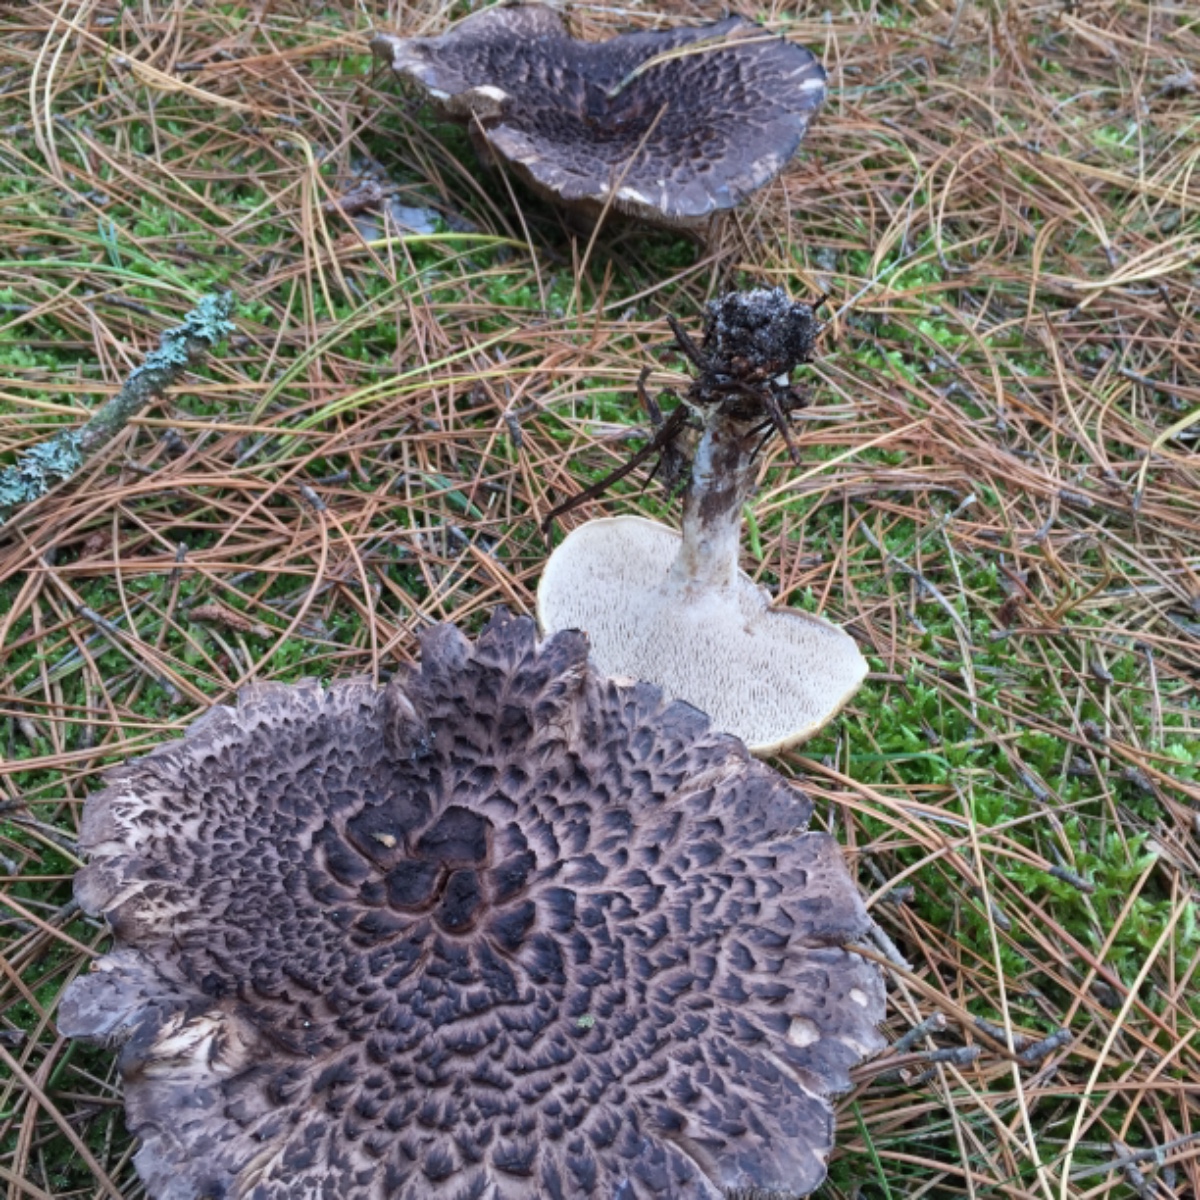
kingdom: Fungi
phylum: Basidiomycota
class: Agaricomycetes
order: Thelephorales
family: Bankeraceae
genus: Sarcodon
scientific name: Sarcodon squamosus
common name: småskællet kødpigsvamp
